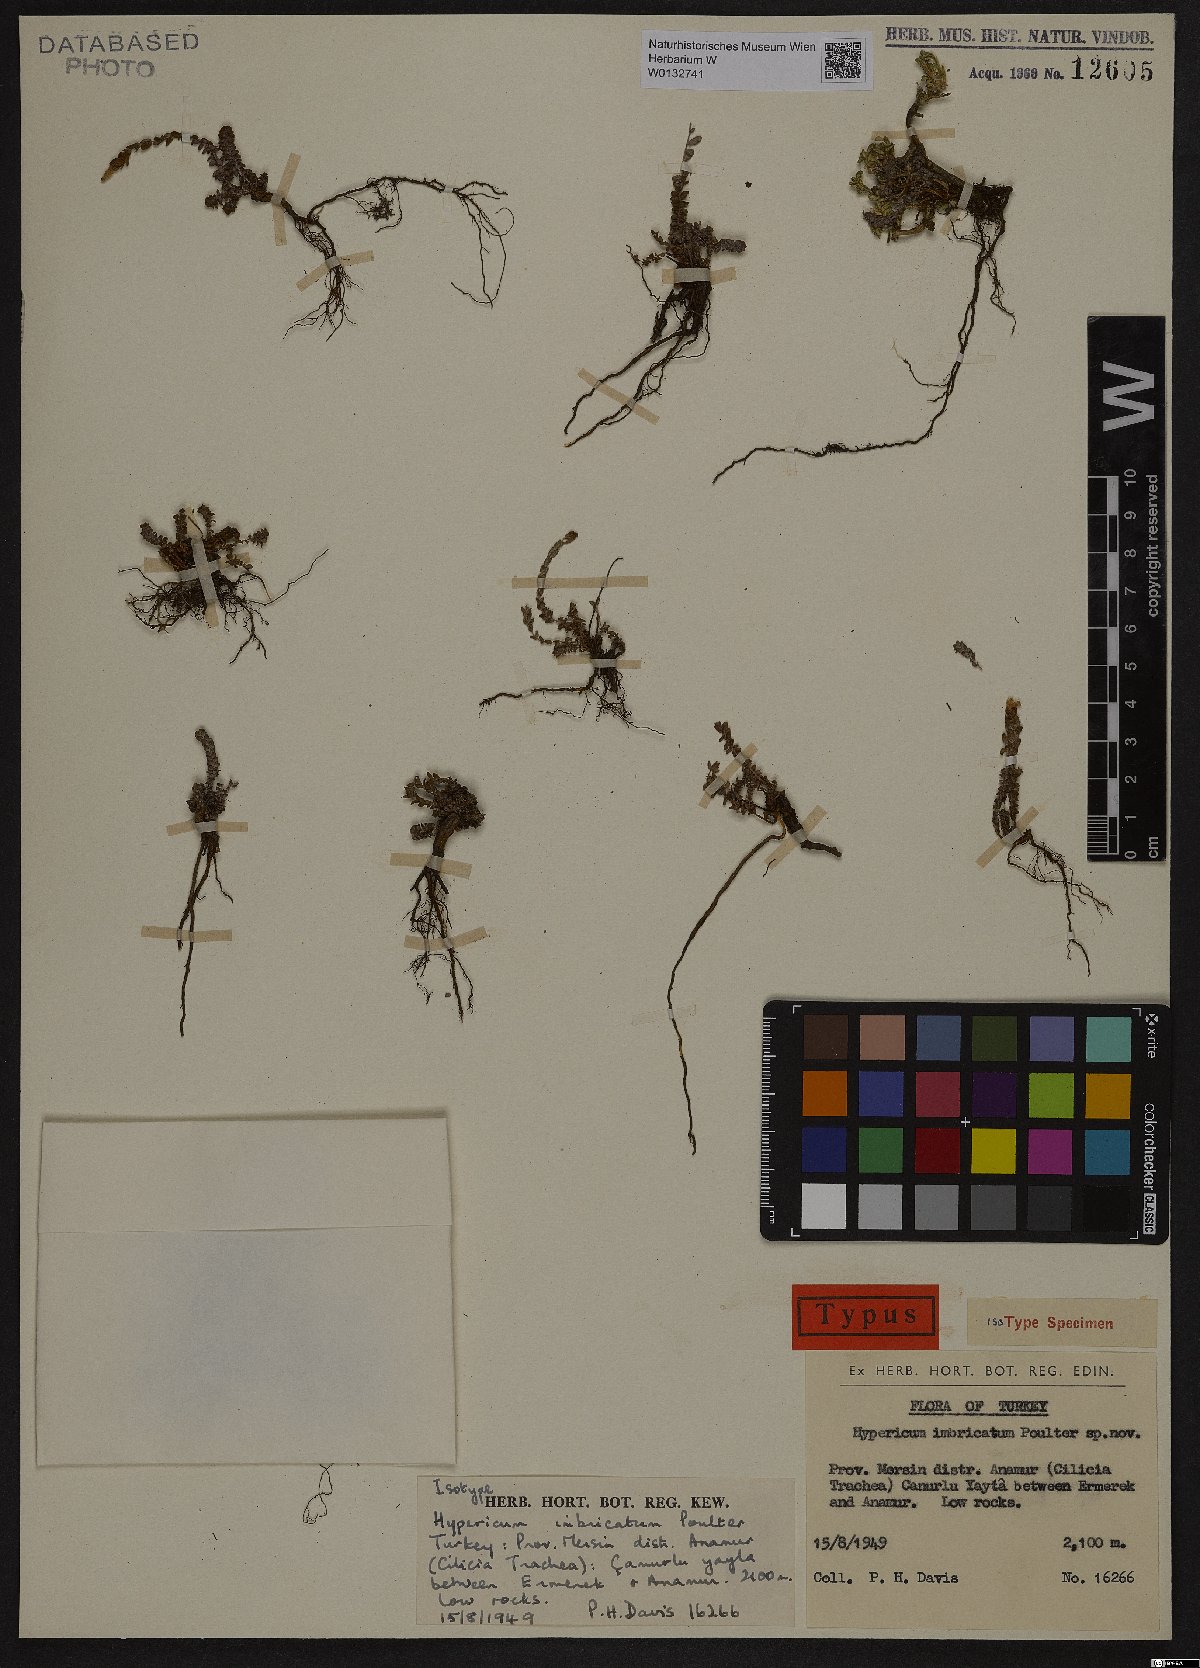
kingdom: Plantae
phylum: Tracheophyta
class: Magnoliopsida
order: Malpighiales
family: Hypericaceae
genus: Hypericum
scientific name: Hypericum imbricatum
